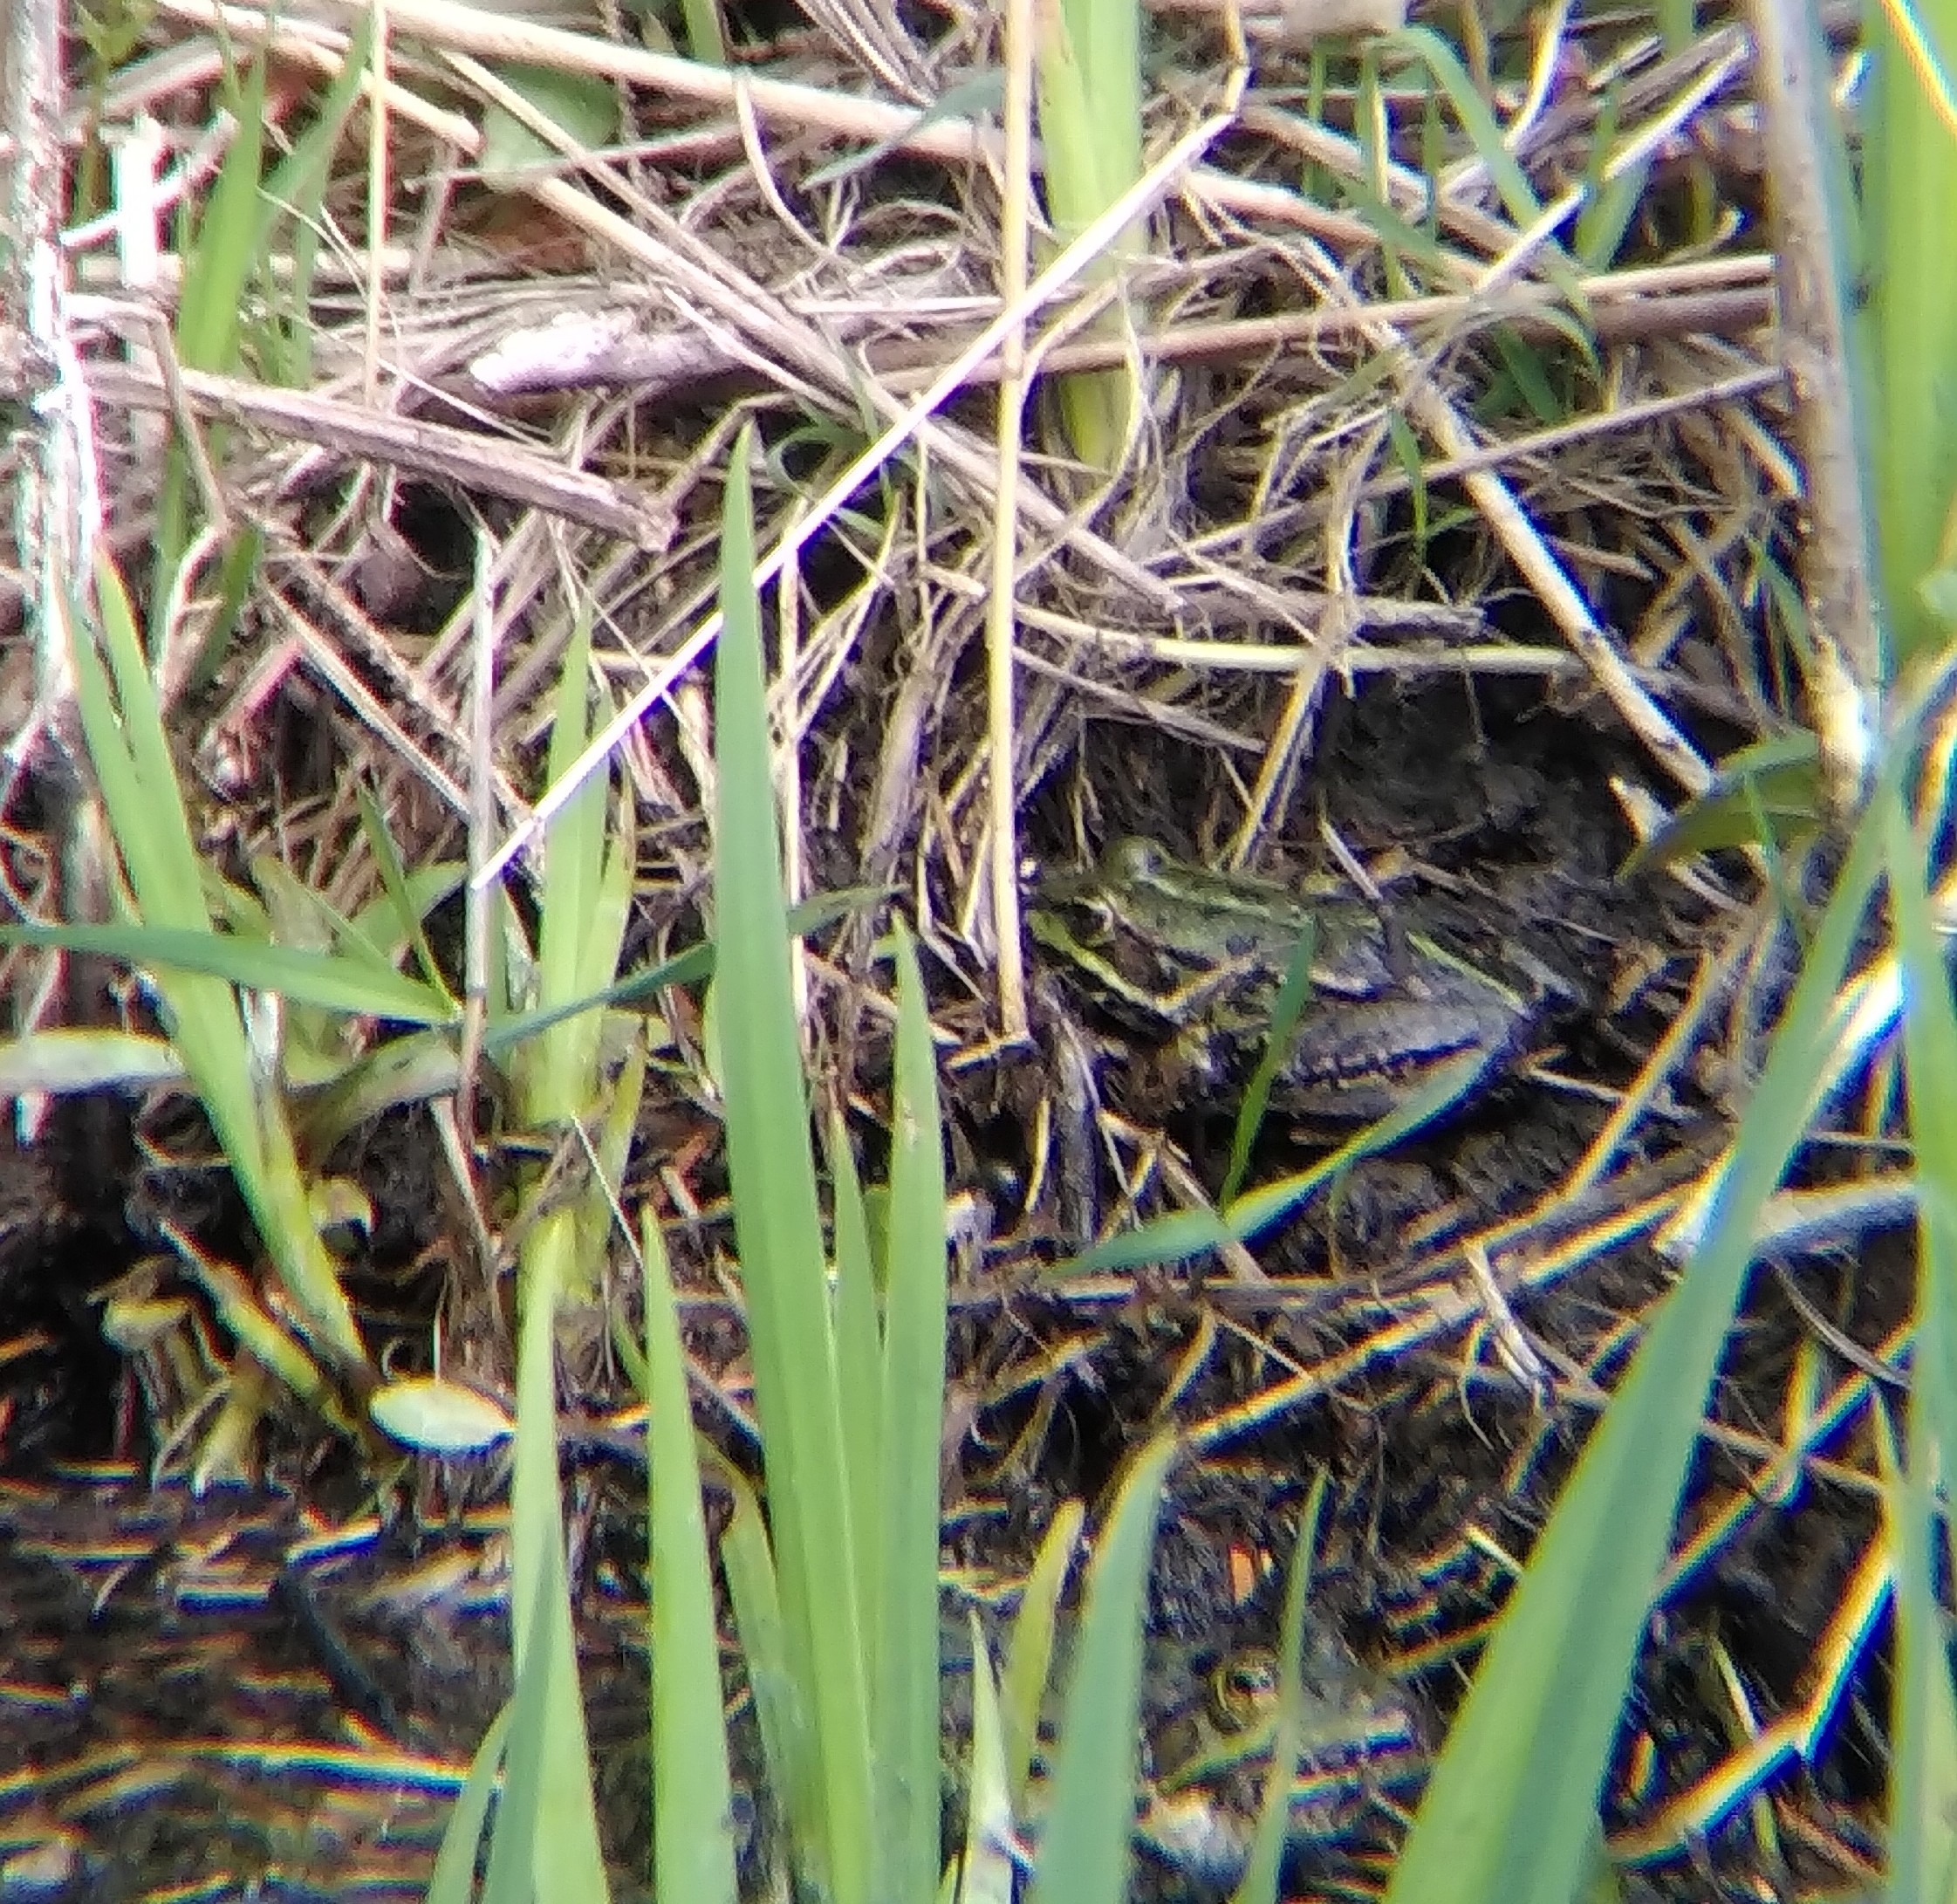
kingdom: Animalia
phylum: Chordata
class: Amphibia
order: Anura
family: Ranidae
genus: Pelophylax
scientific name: Pelophylax lessonae
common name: Grøn frø
